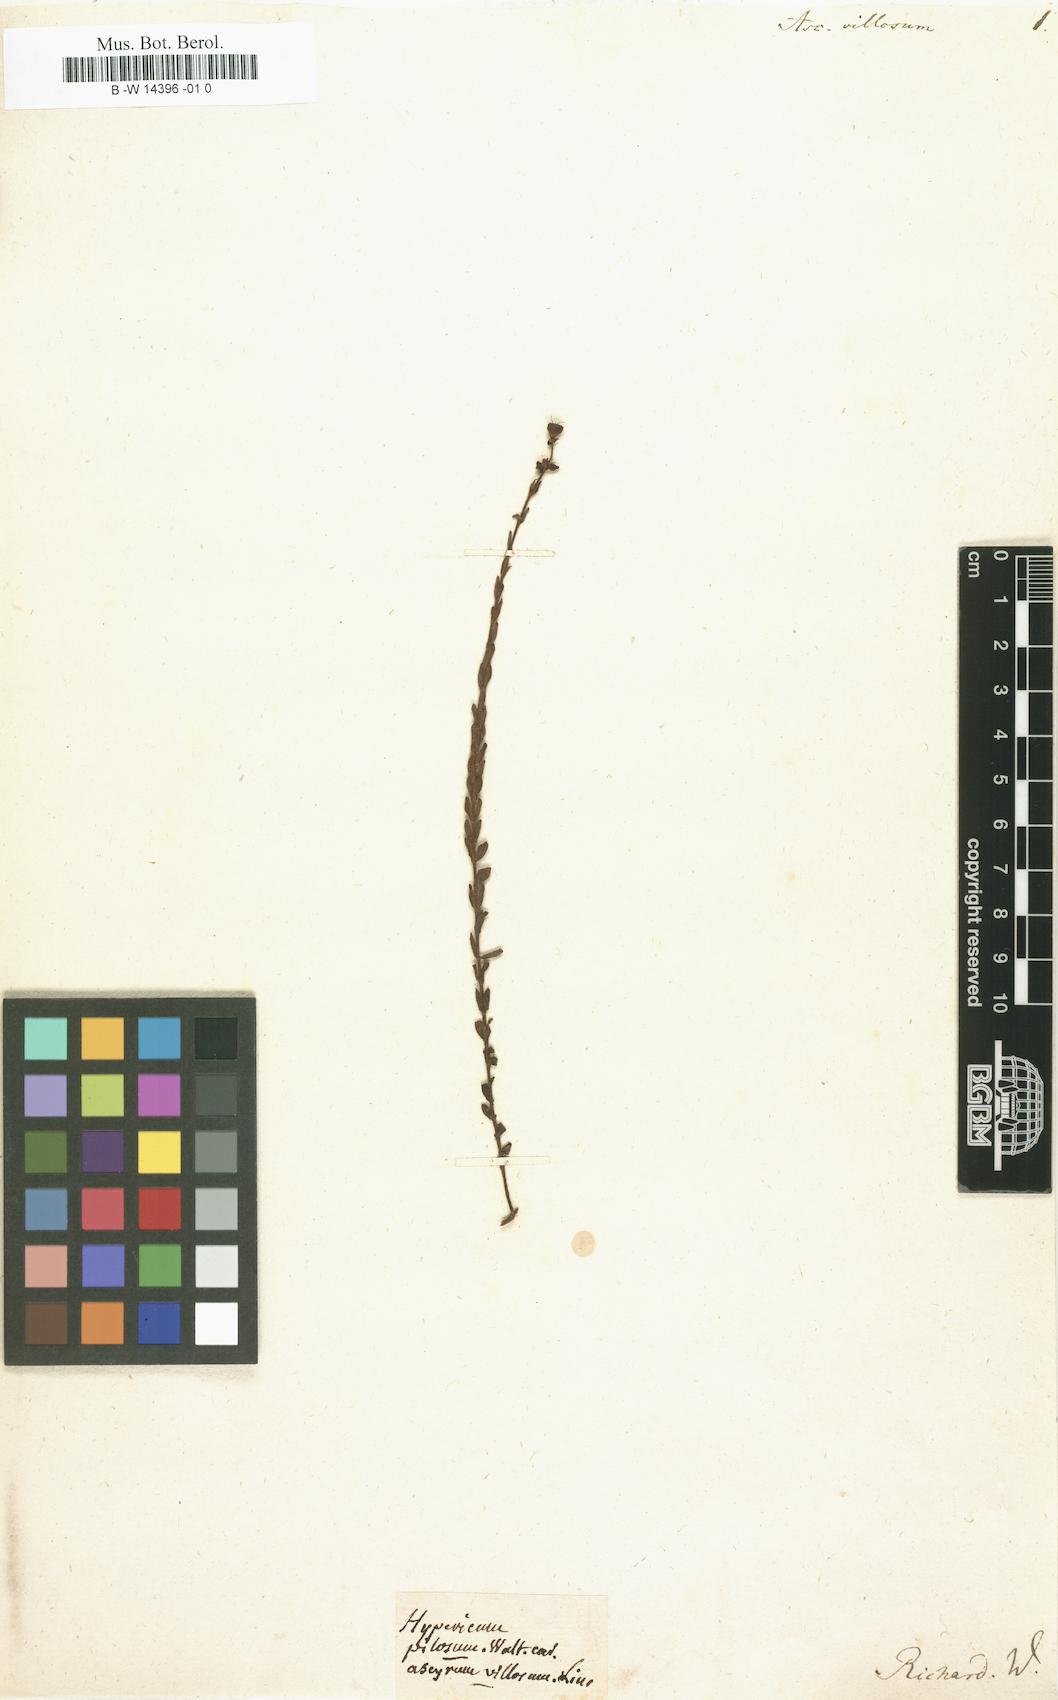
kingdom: Plantae
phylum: Tracheophyta
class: Magnoliopsida
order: Malpighiales
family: Hypericaceae
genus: Hypericum
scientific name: Hypericum setosum
